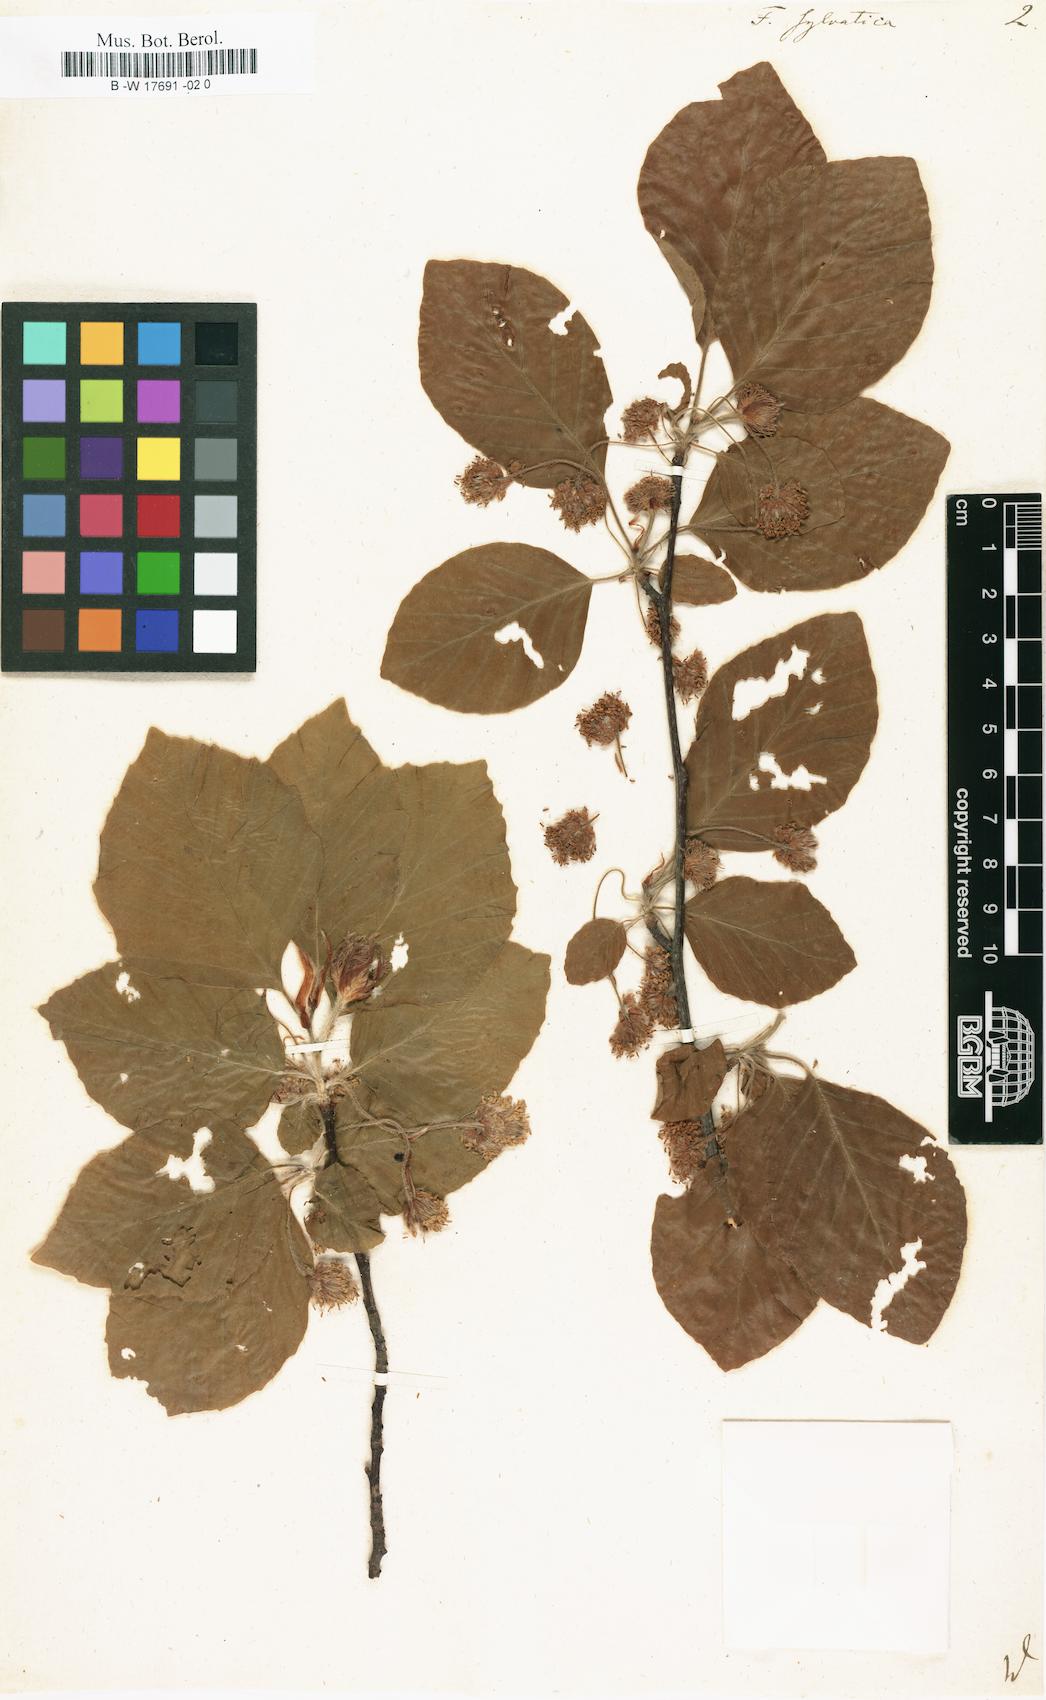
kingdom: Plantae
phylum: Tracheophyta
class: Magnoliopsida
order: Fagales
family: Fagaceae
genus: Fagus
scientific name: Fagus sylvatica
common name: Beech
